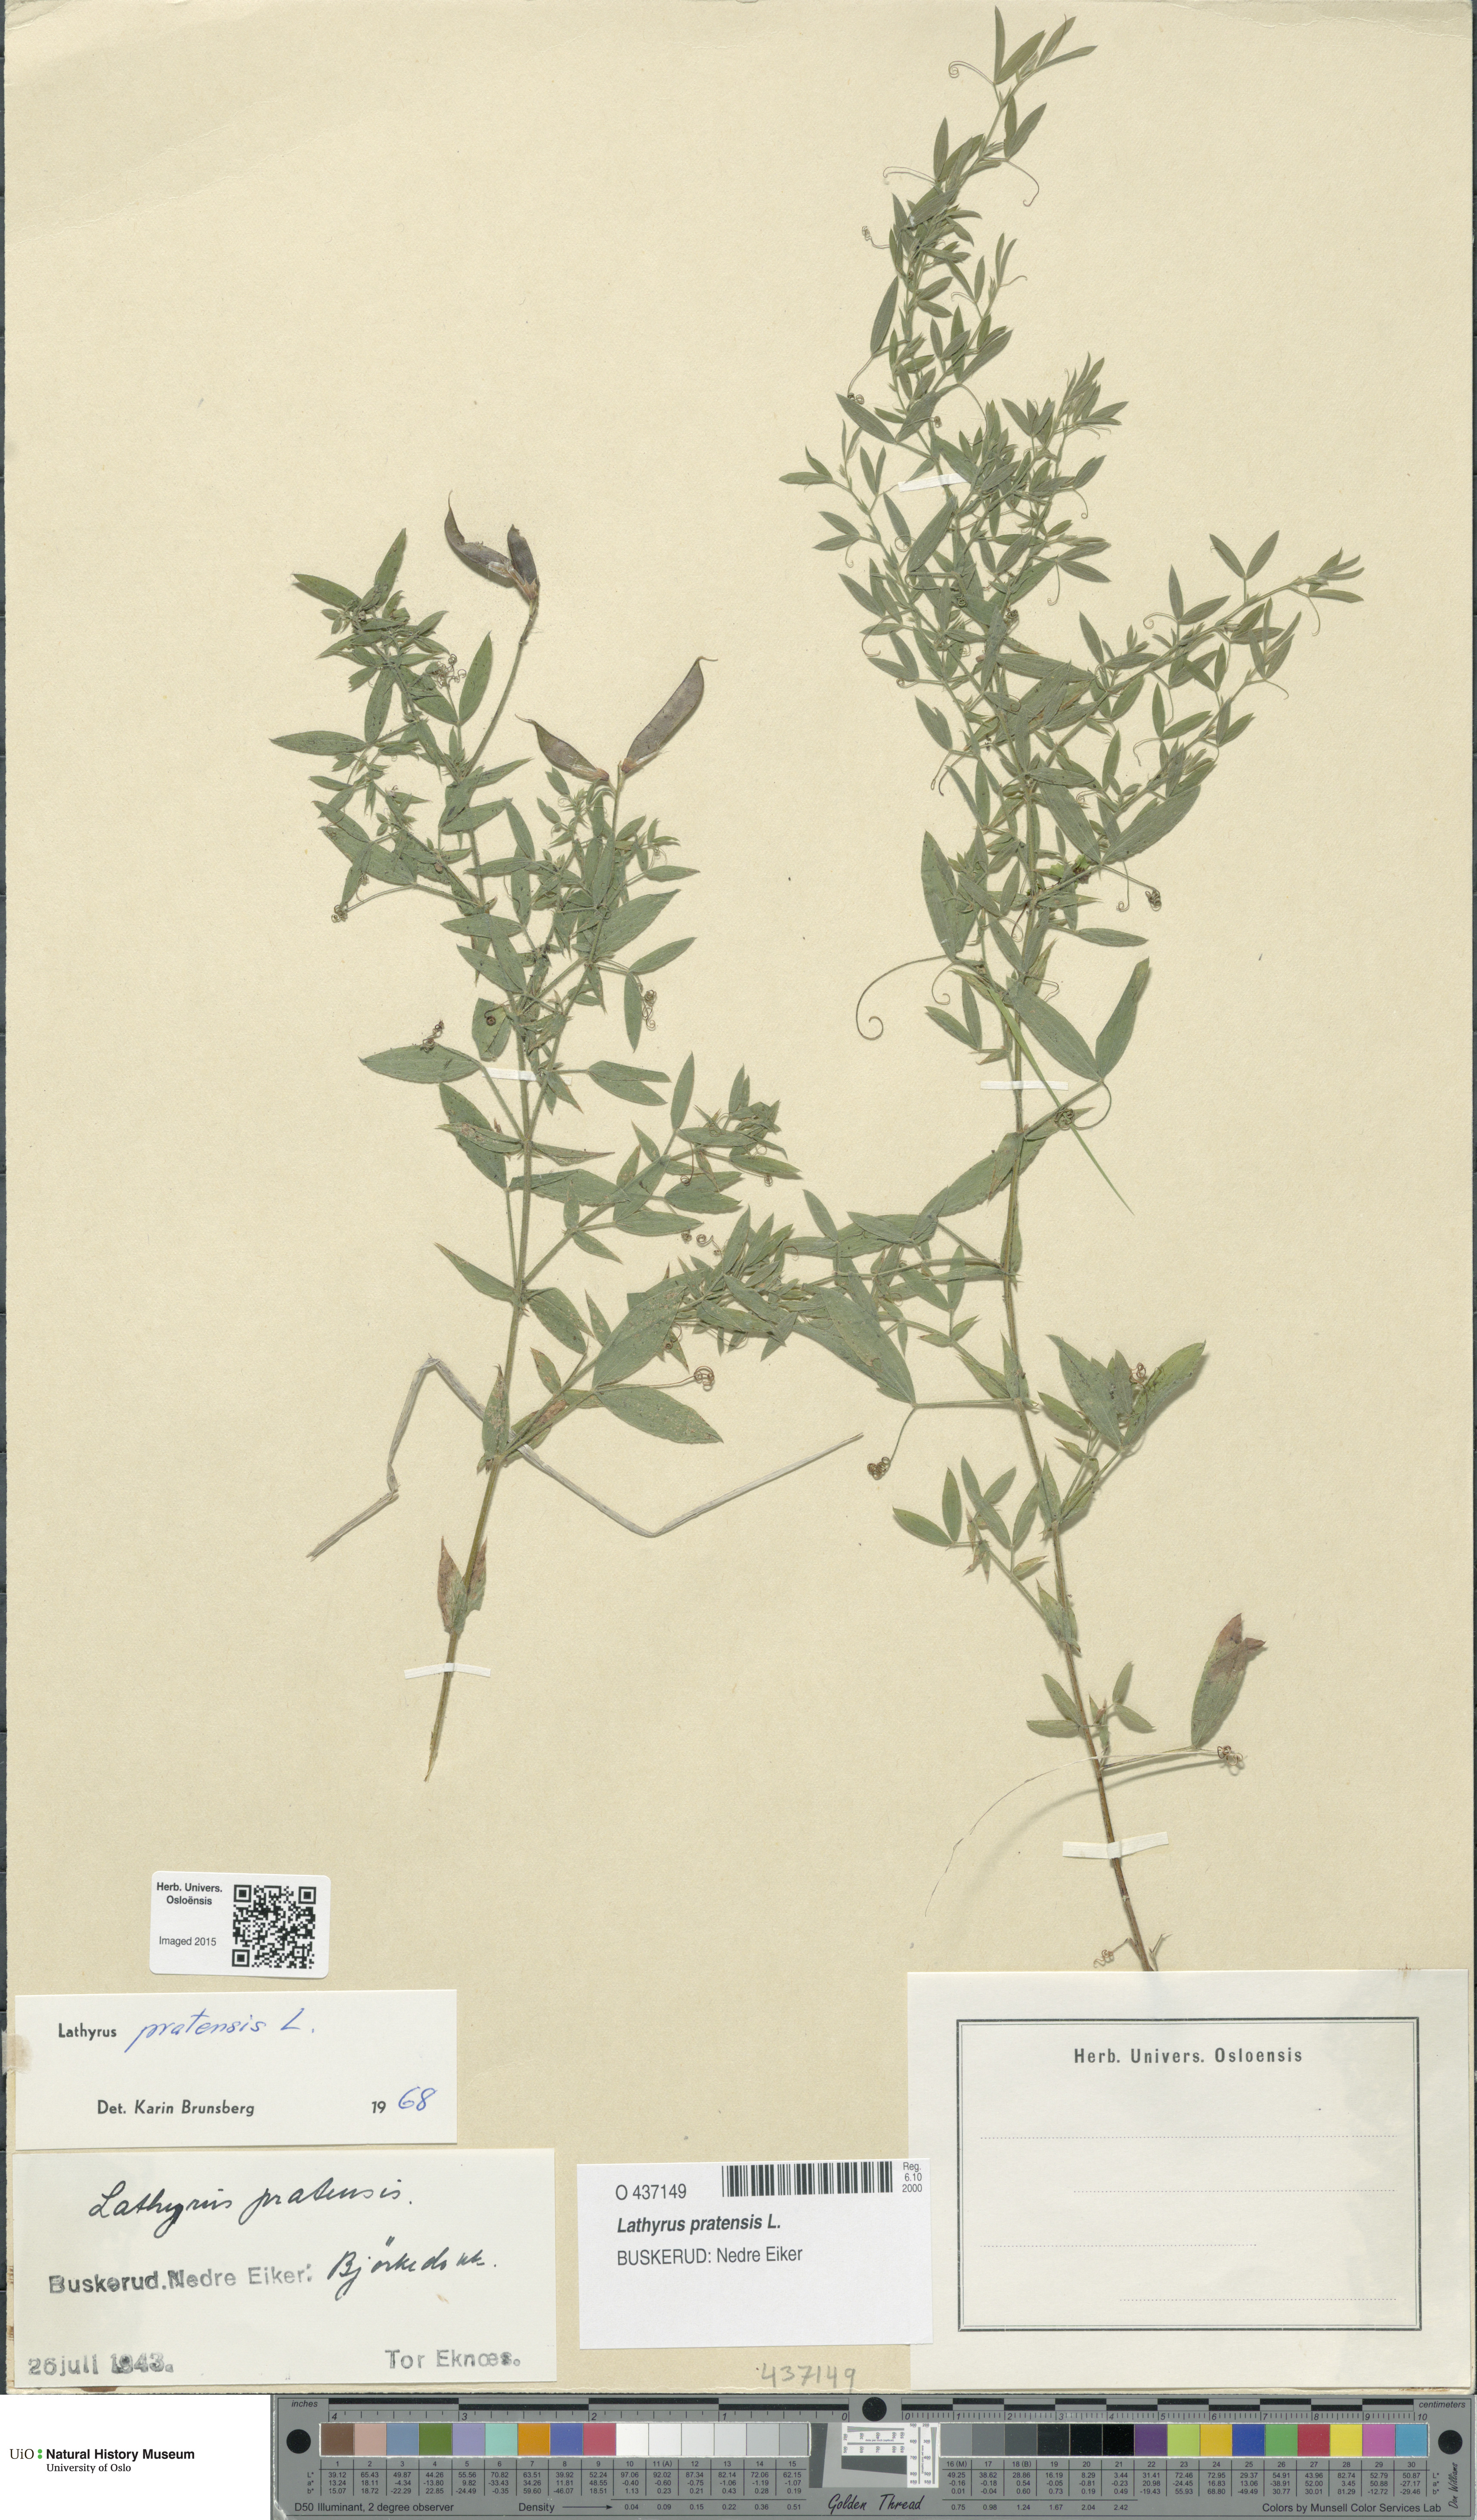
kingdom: Plantae
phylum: Tracheophyta
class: Magnoliopsida
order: Fabales
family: Fabaceae
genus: Lathyrus
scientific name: Lathyrus pratensis
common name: Meadow vetchling
